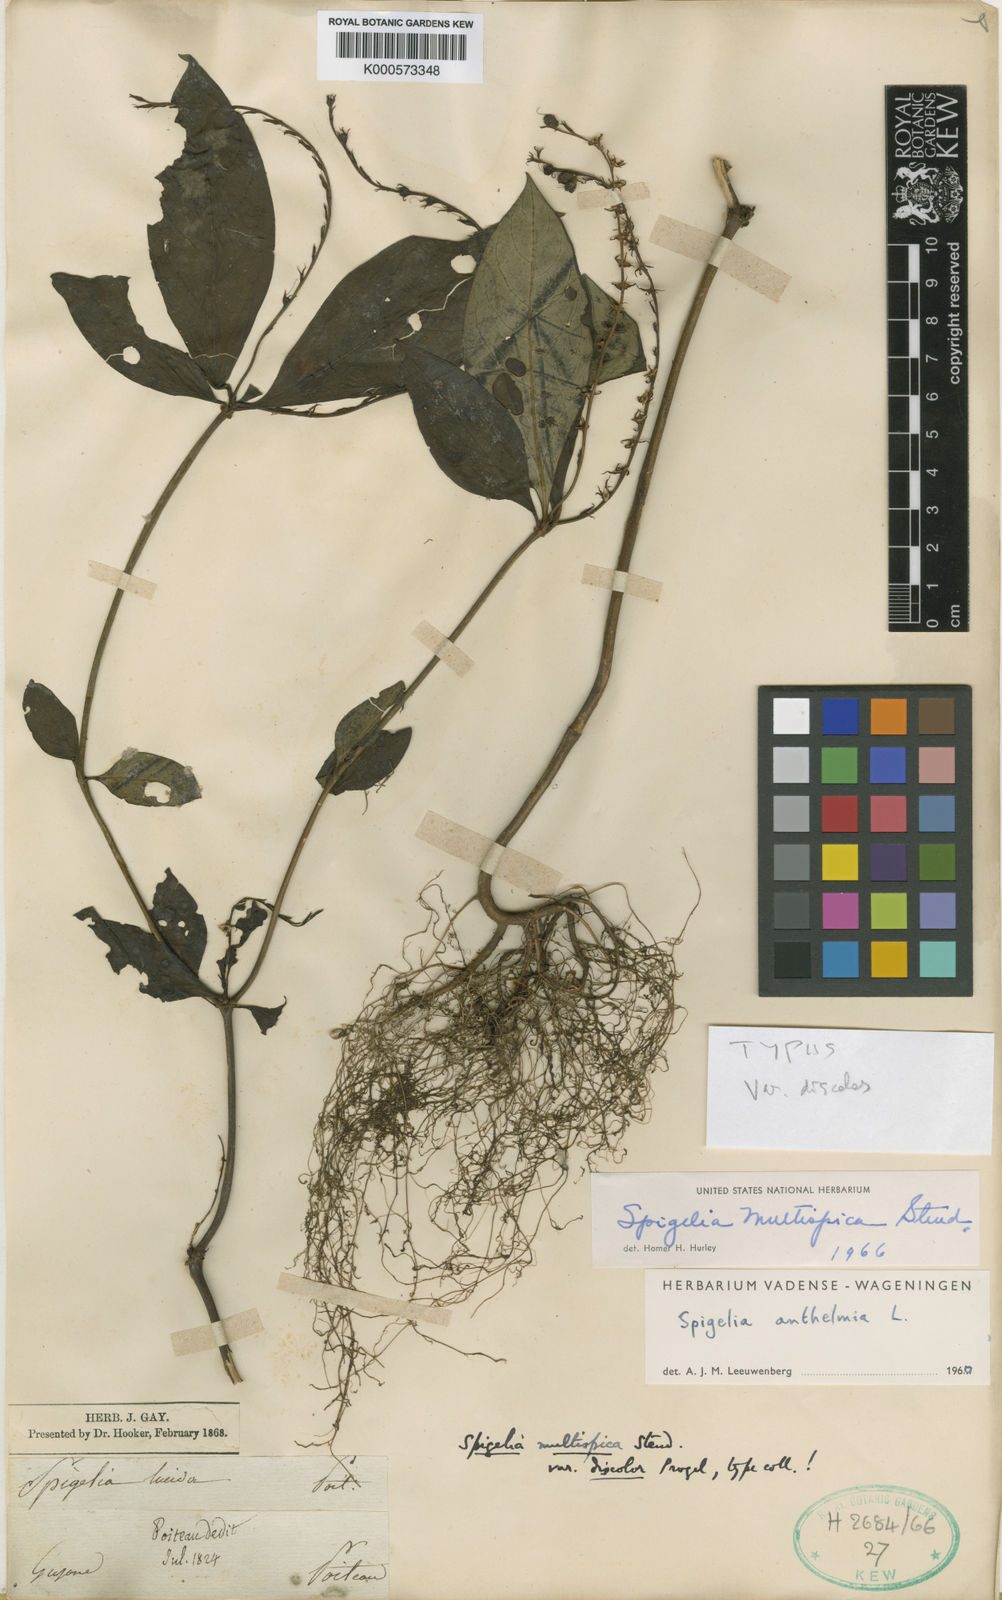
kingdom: Plantae
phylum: Tracheophyta
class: Magnoliopsida
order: Gentianales
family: Loganiaceae
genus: Spigelia
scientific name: Spigelia hamellioides
